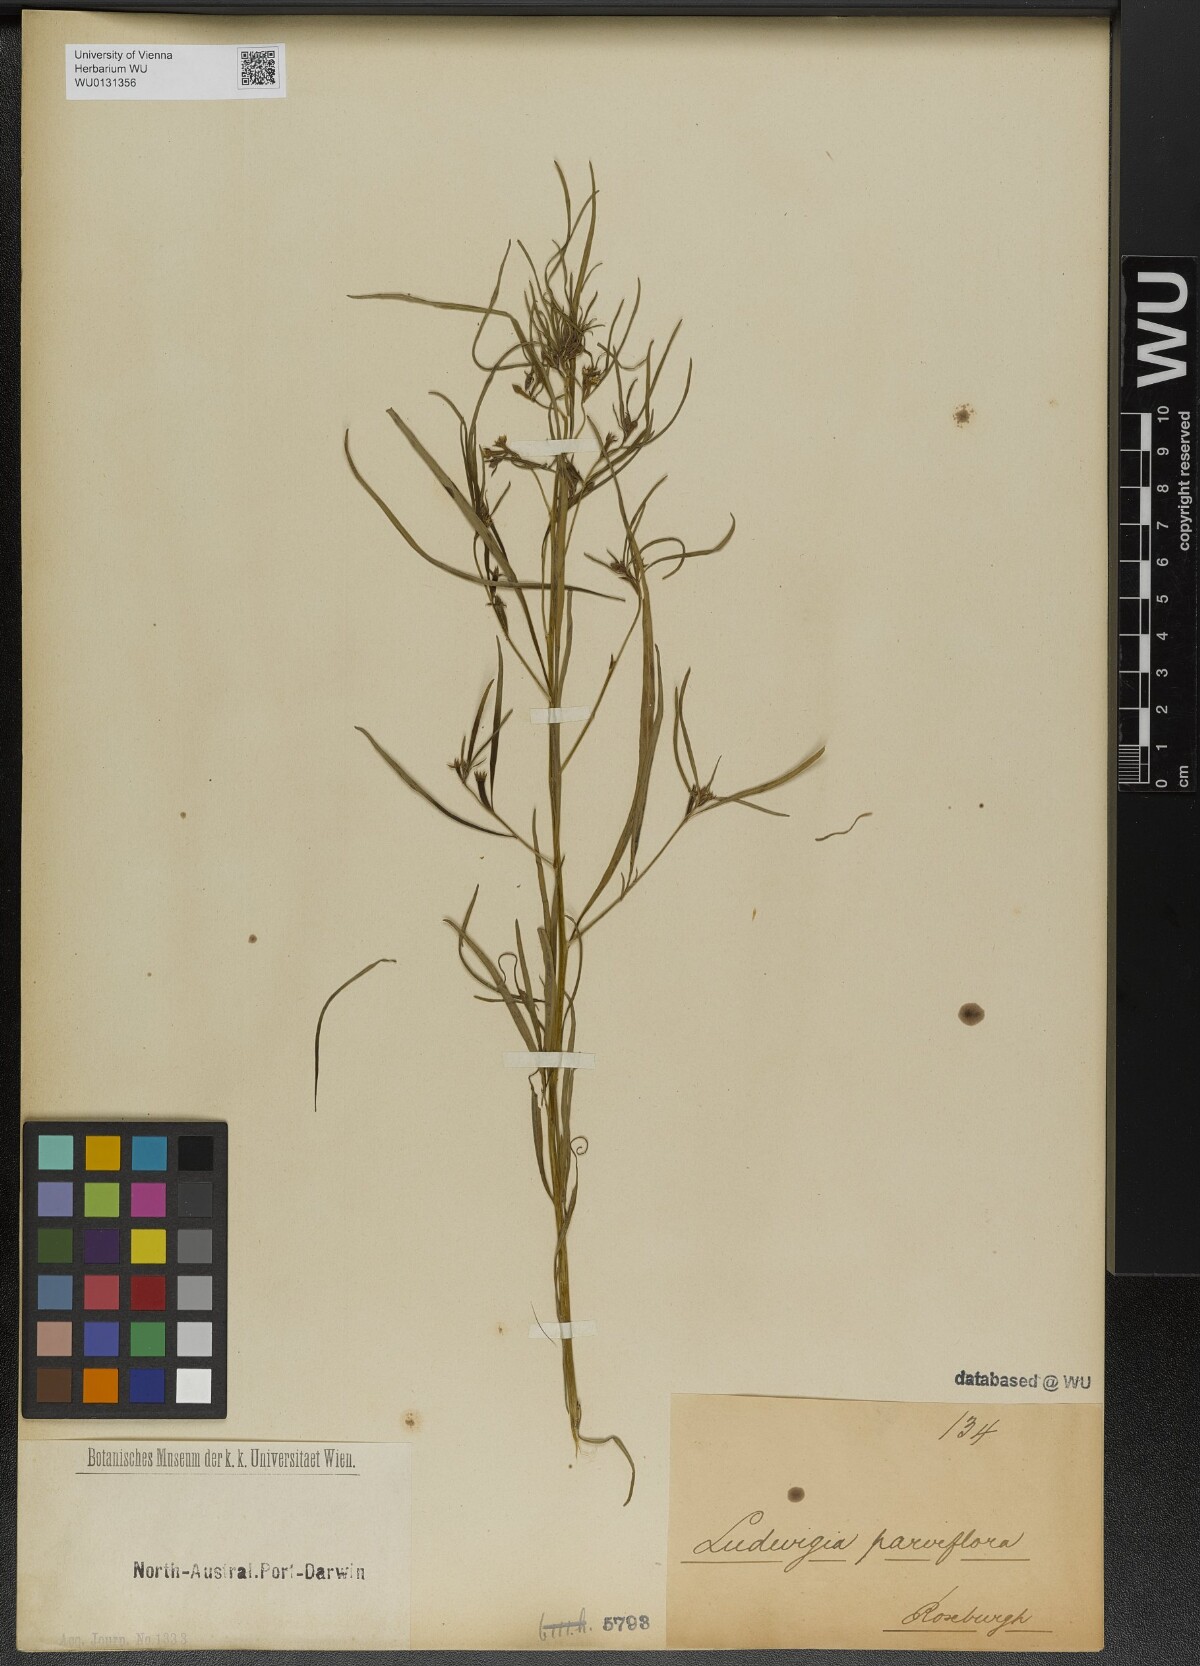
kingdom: Plantae
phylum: Tracheophyta
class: Magnoliopsida
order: Myrtales
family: Onagraceae
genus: Ludwigia
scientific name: Ludwigia perennis
